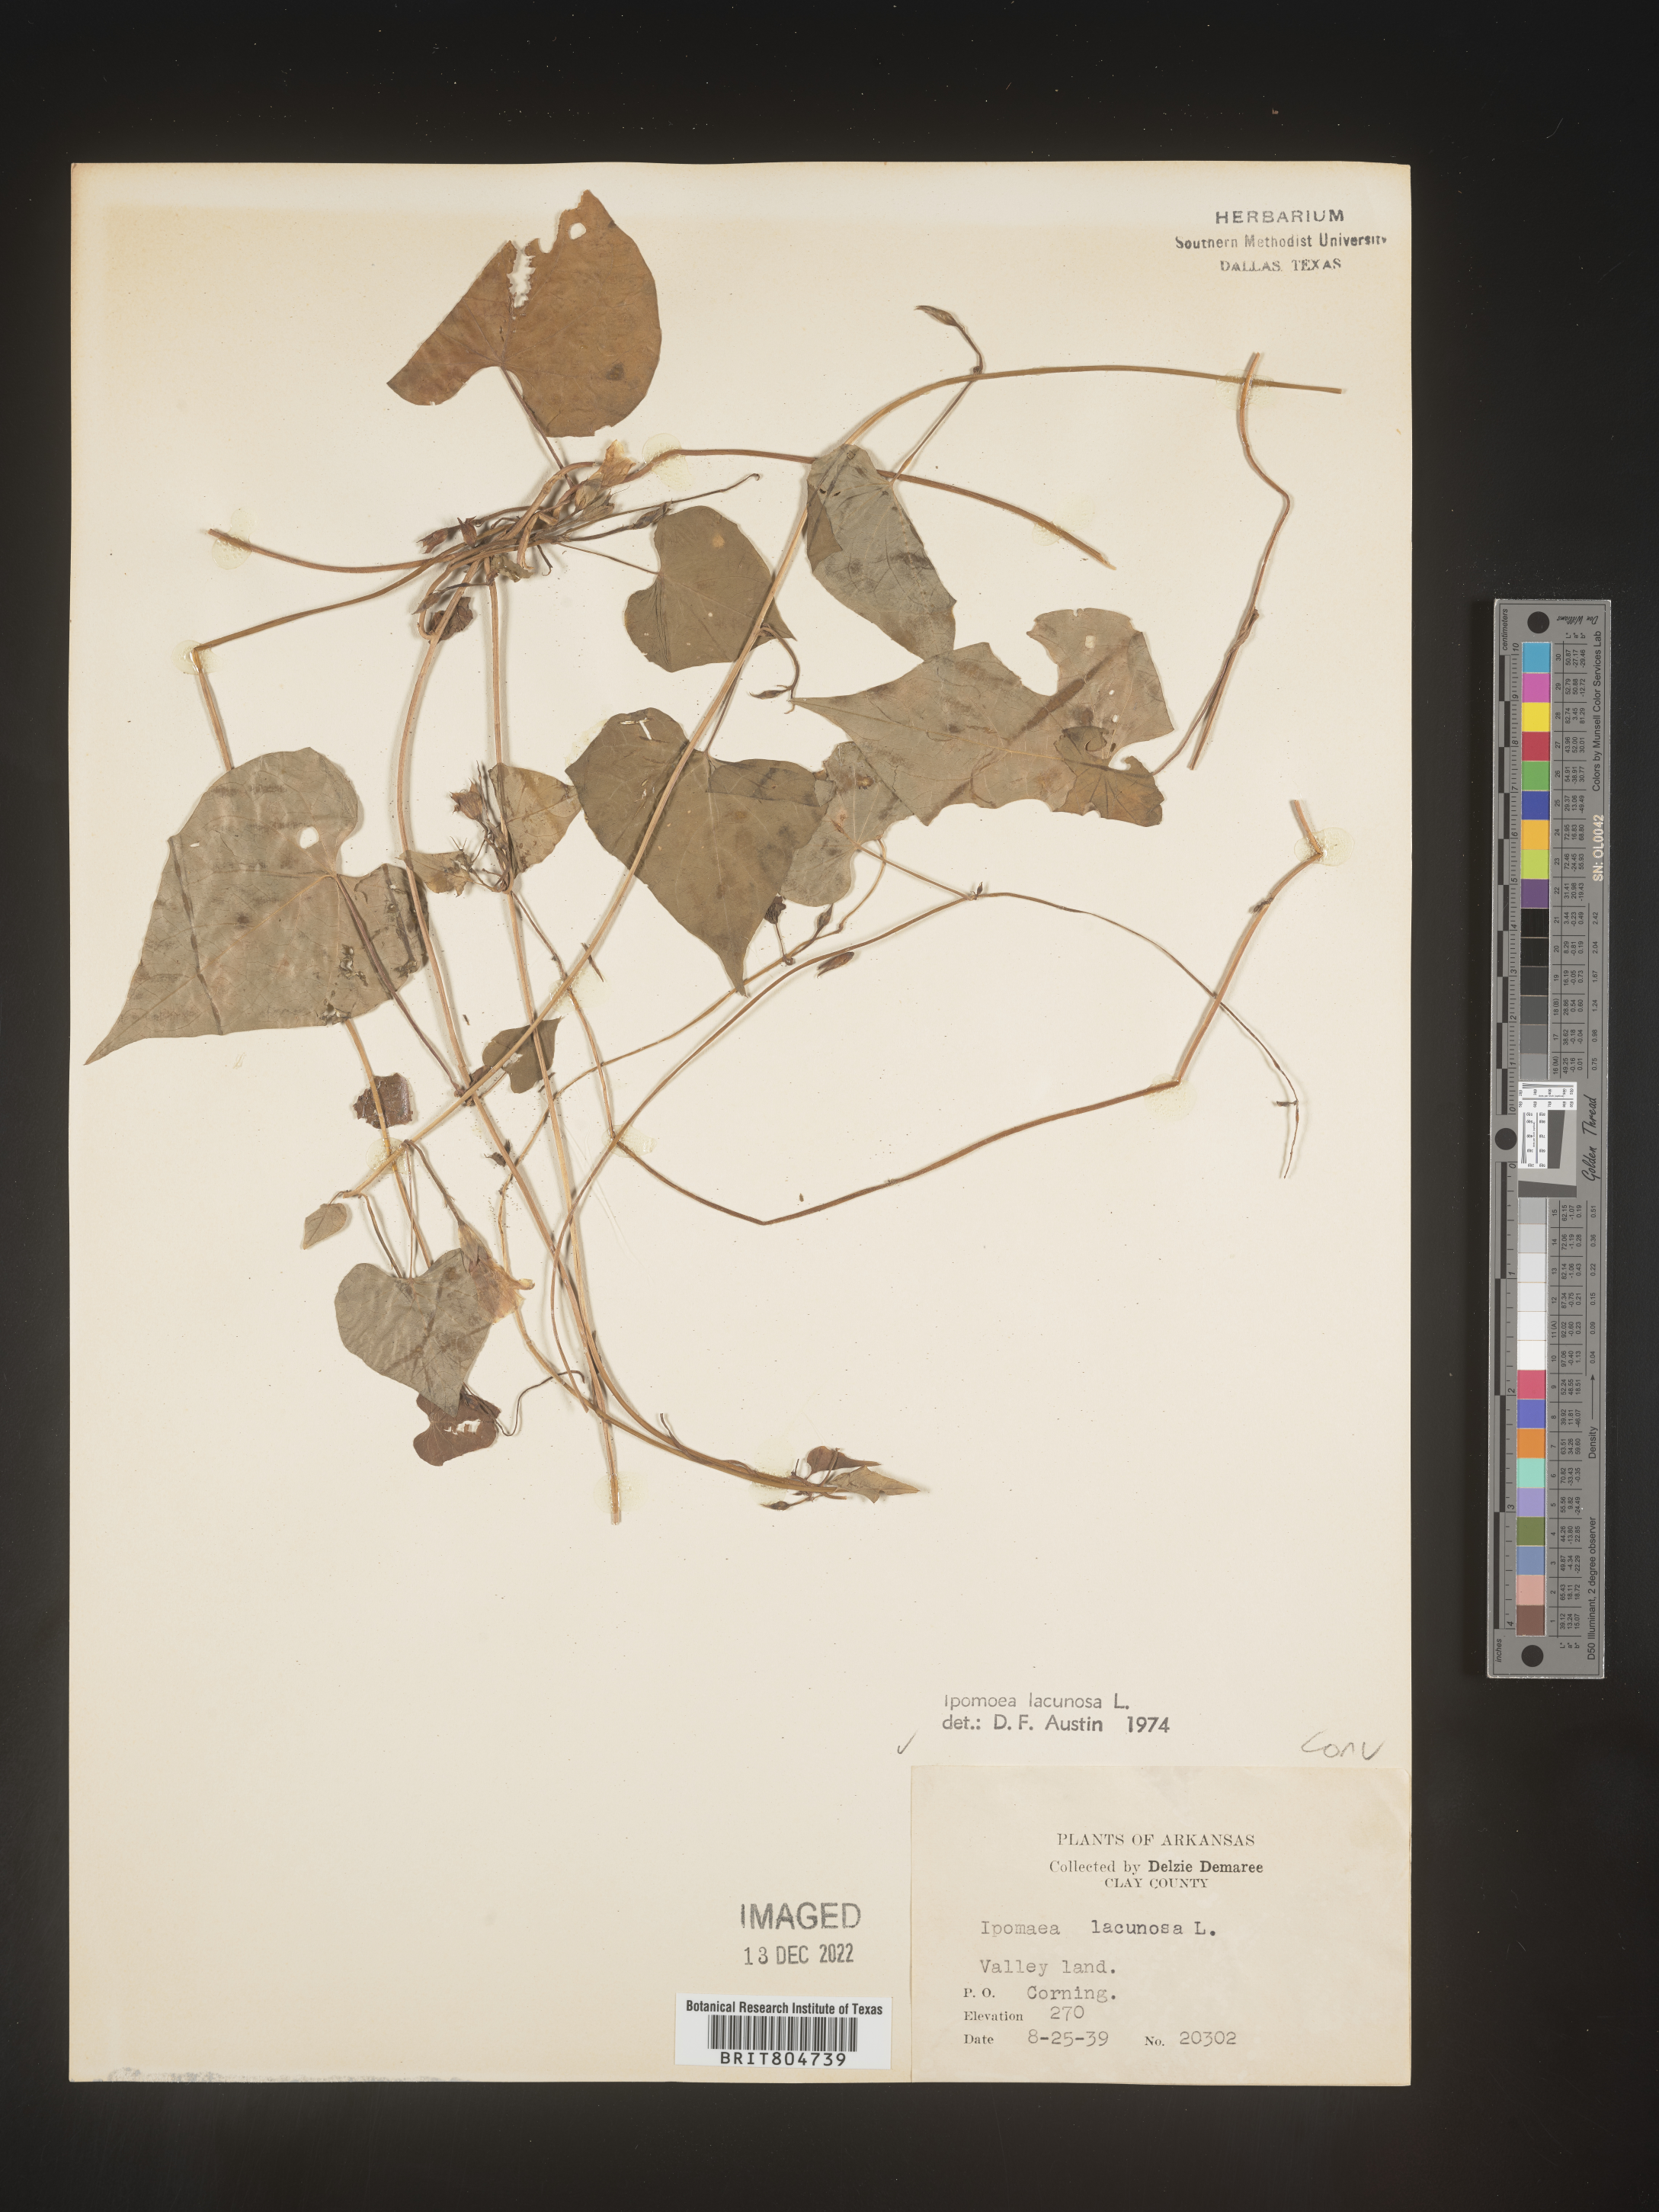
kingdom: Plantae
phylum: Tracheophyta
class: Magnoliopsida
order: Solanales
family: Convolvulaceae
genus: Ipomoea
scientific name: Ipomoea lacunosa
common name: White morning-glory
